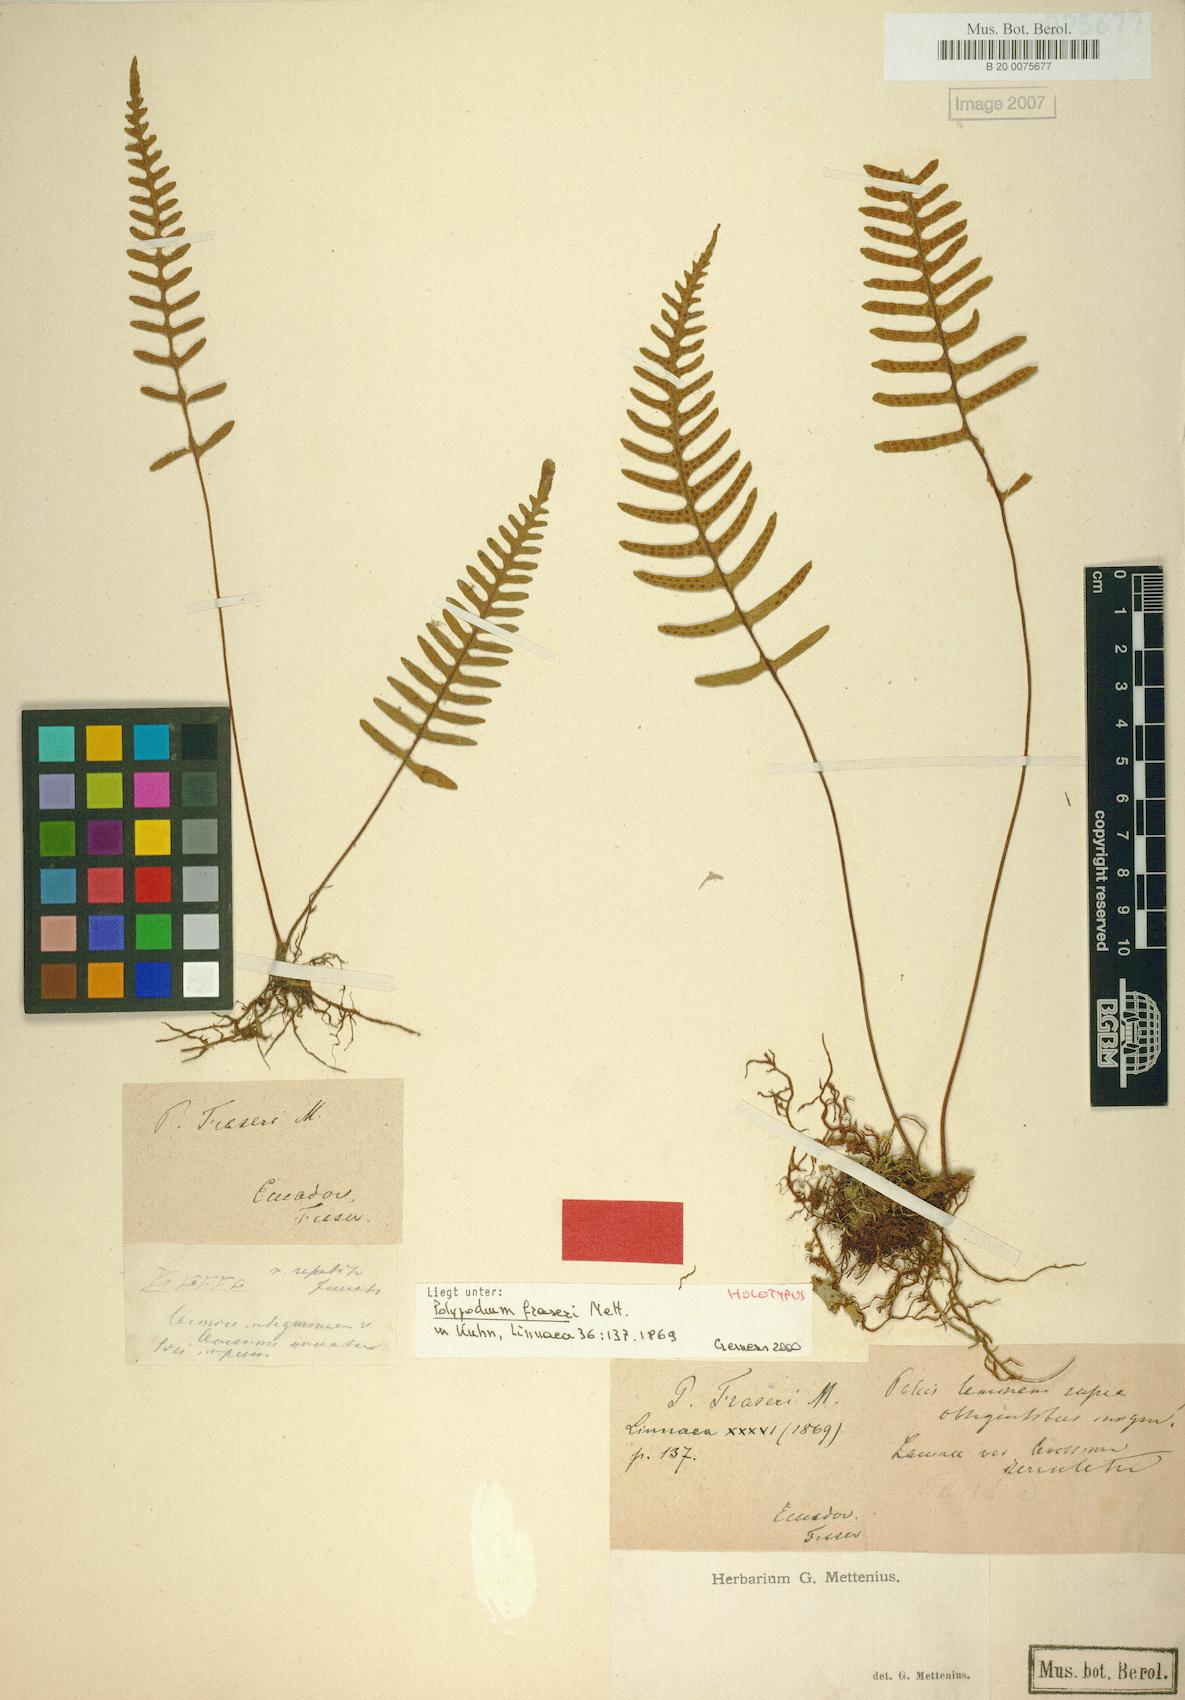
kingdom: Plantae
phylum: Tracheophyta
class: Polypodiopsida
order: Polypodiales
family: Polypodiaceae
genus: Pleopeltis
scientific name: Pleopeltis fraseri
